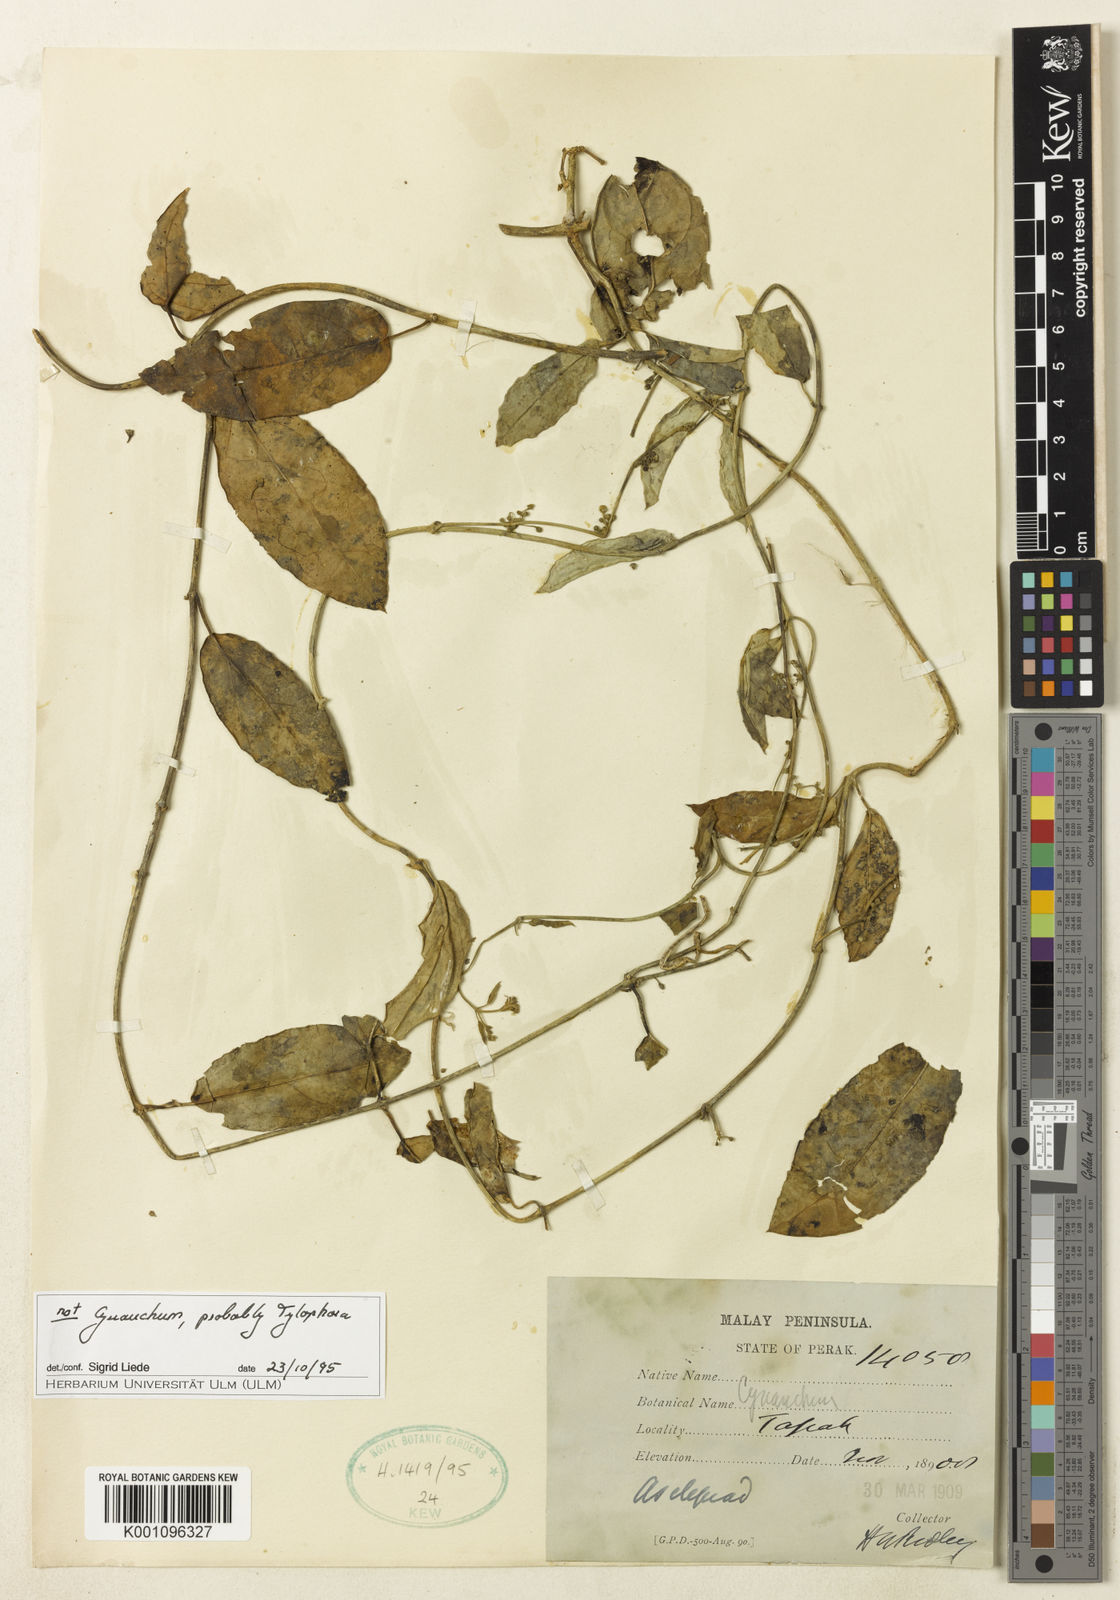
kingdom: Plantae
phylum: Tracheophyta
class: Magnoliopsida
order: Gentianales
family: Apocynaceae
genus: Gymnema
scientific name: Gymnema dissitiflorum
